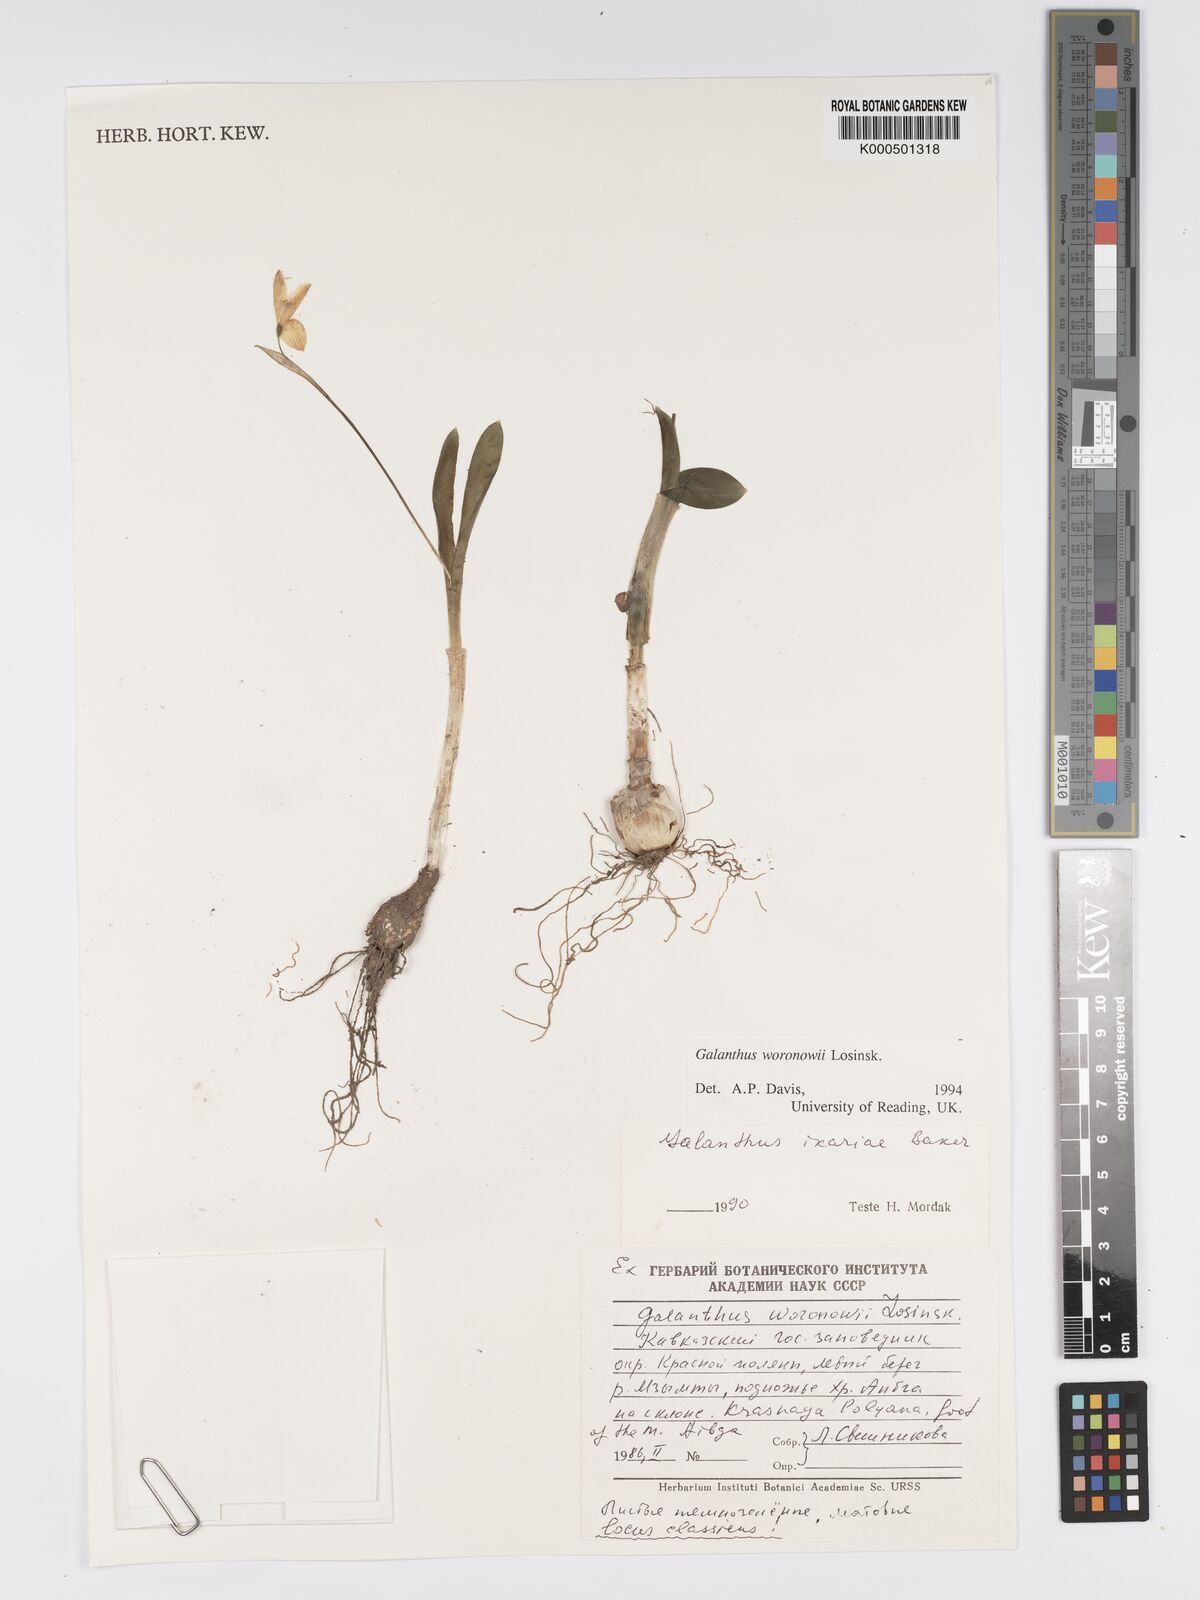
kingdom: Plantae
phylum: Tracheophyta
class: Liliopsida
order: Asparagales
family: Amaryllidaceae
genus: Galanthus
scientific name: Galanthus woronowii
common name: Green snowdrop
